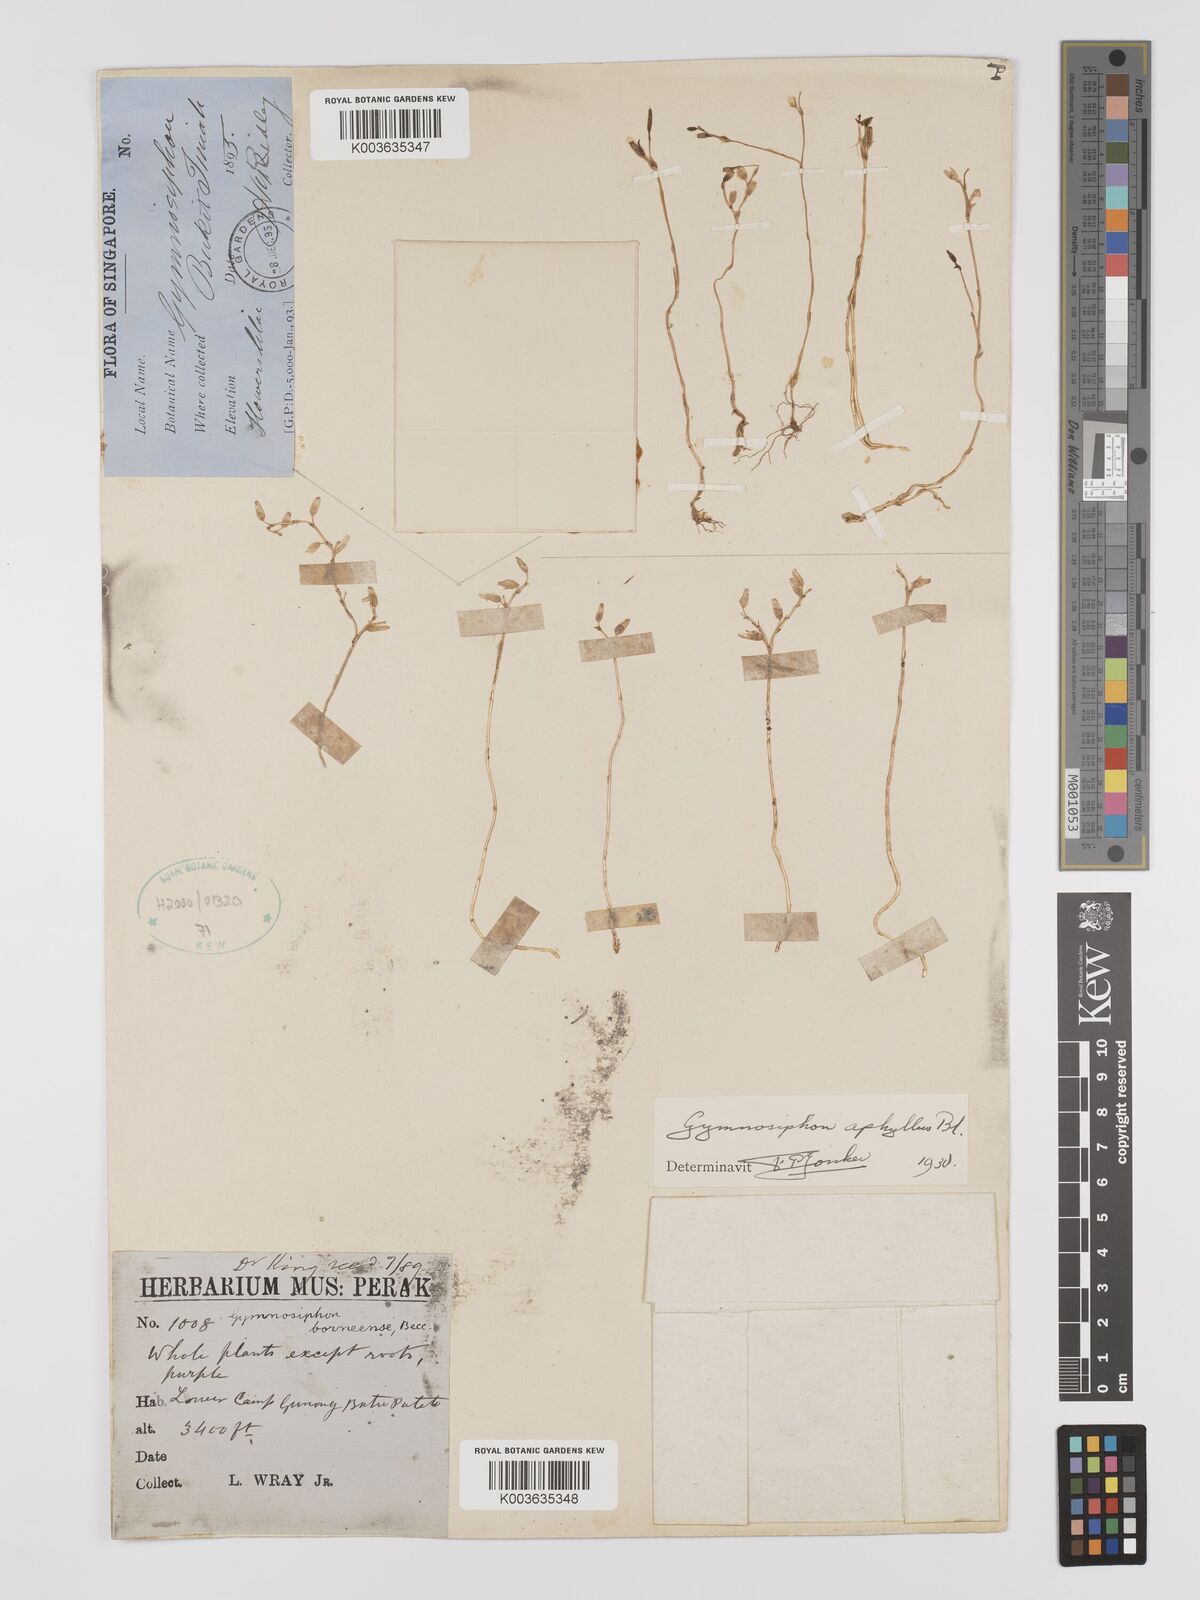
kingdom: Plantae
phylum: Tracheophyta
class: Liliopsida
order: Dioscoreales
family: Burmanniaceae
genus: Gymnosiphon
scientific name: Gymnosiphon aphyllus
